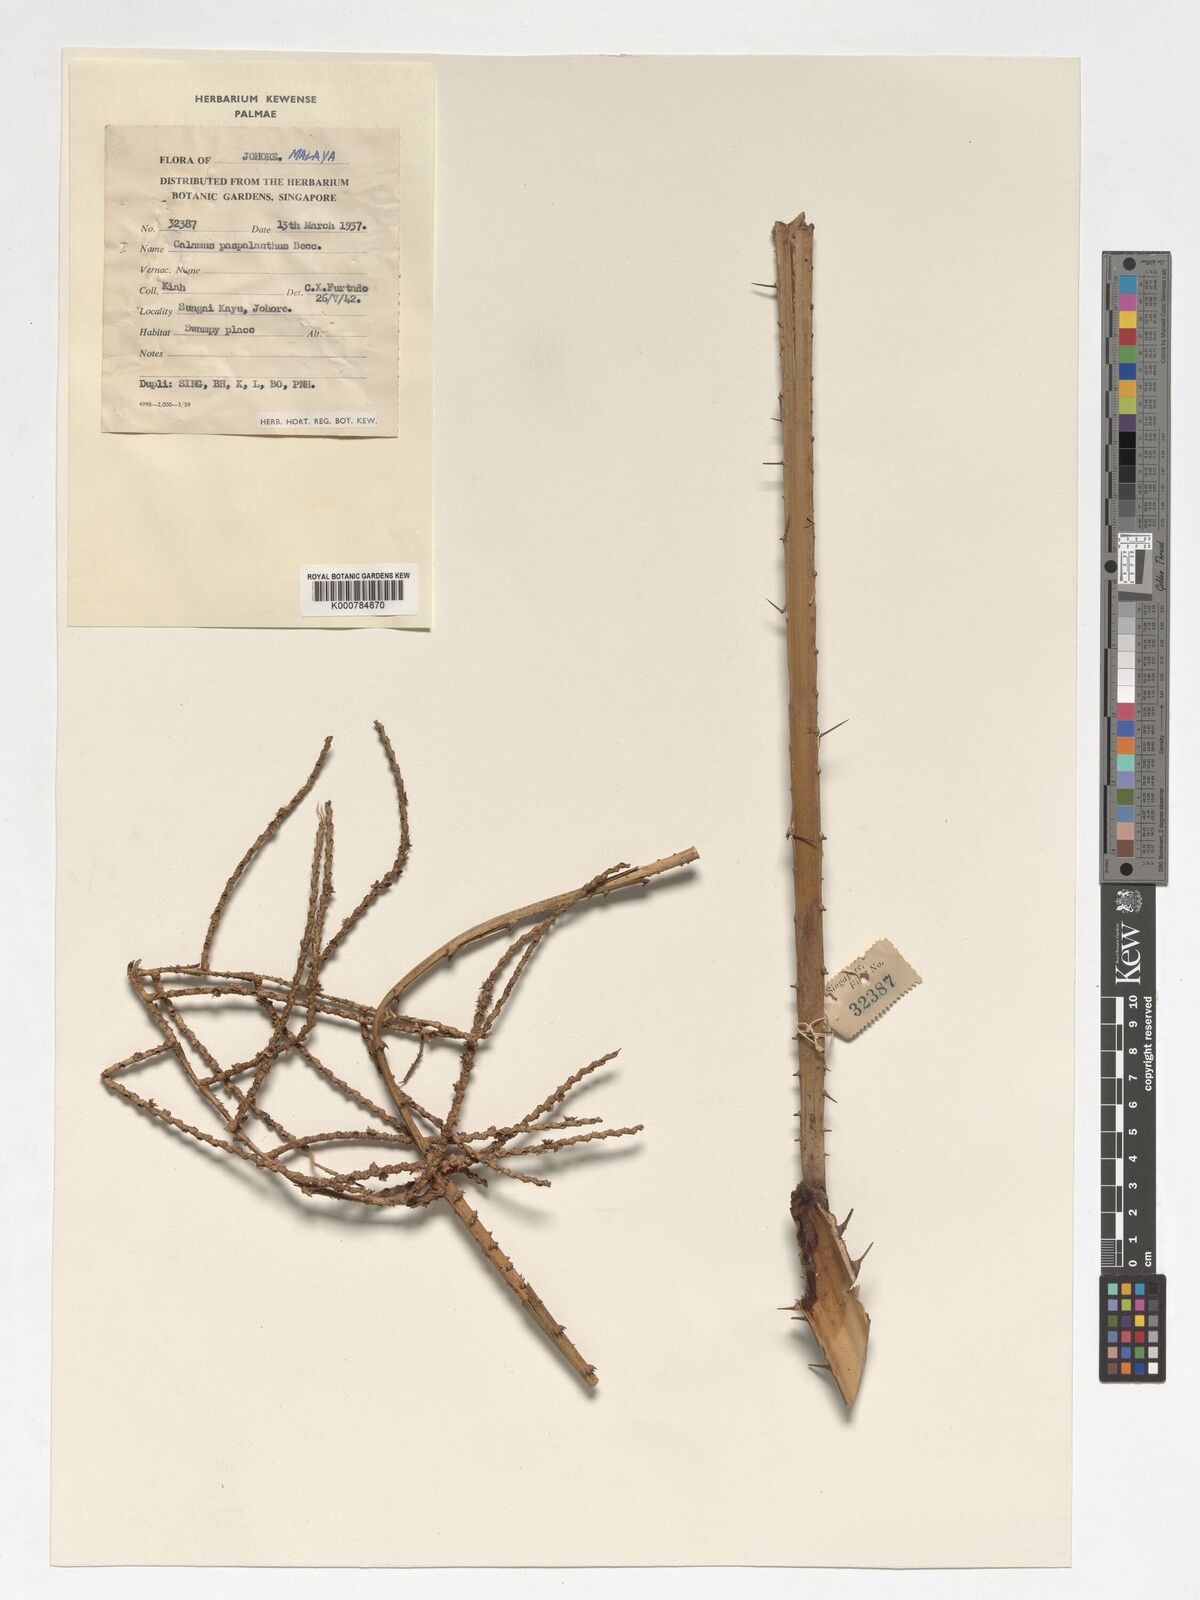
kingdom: Plantae
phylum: Tracheophyta
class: Liliopsida
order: Arecales
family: Arecaceae
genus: Calamus
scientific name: Calamus paspalanthus
